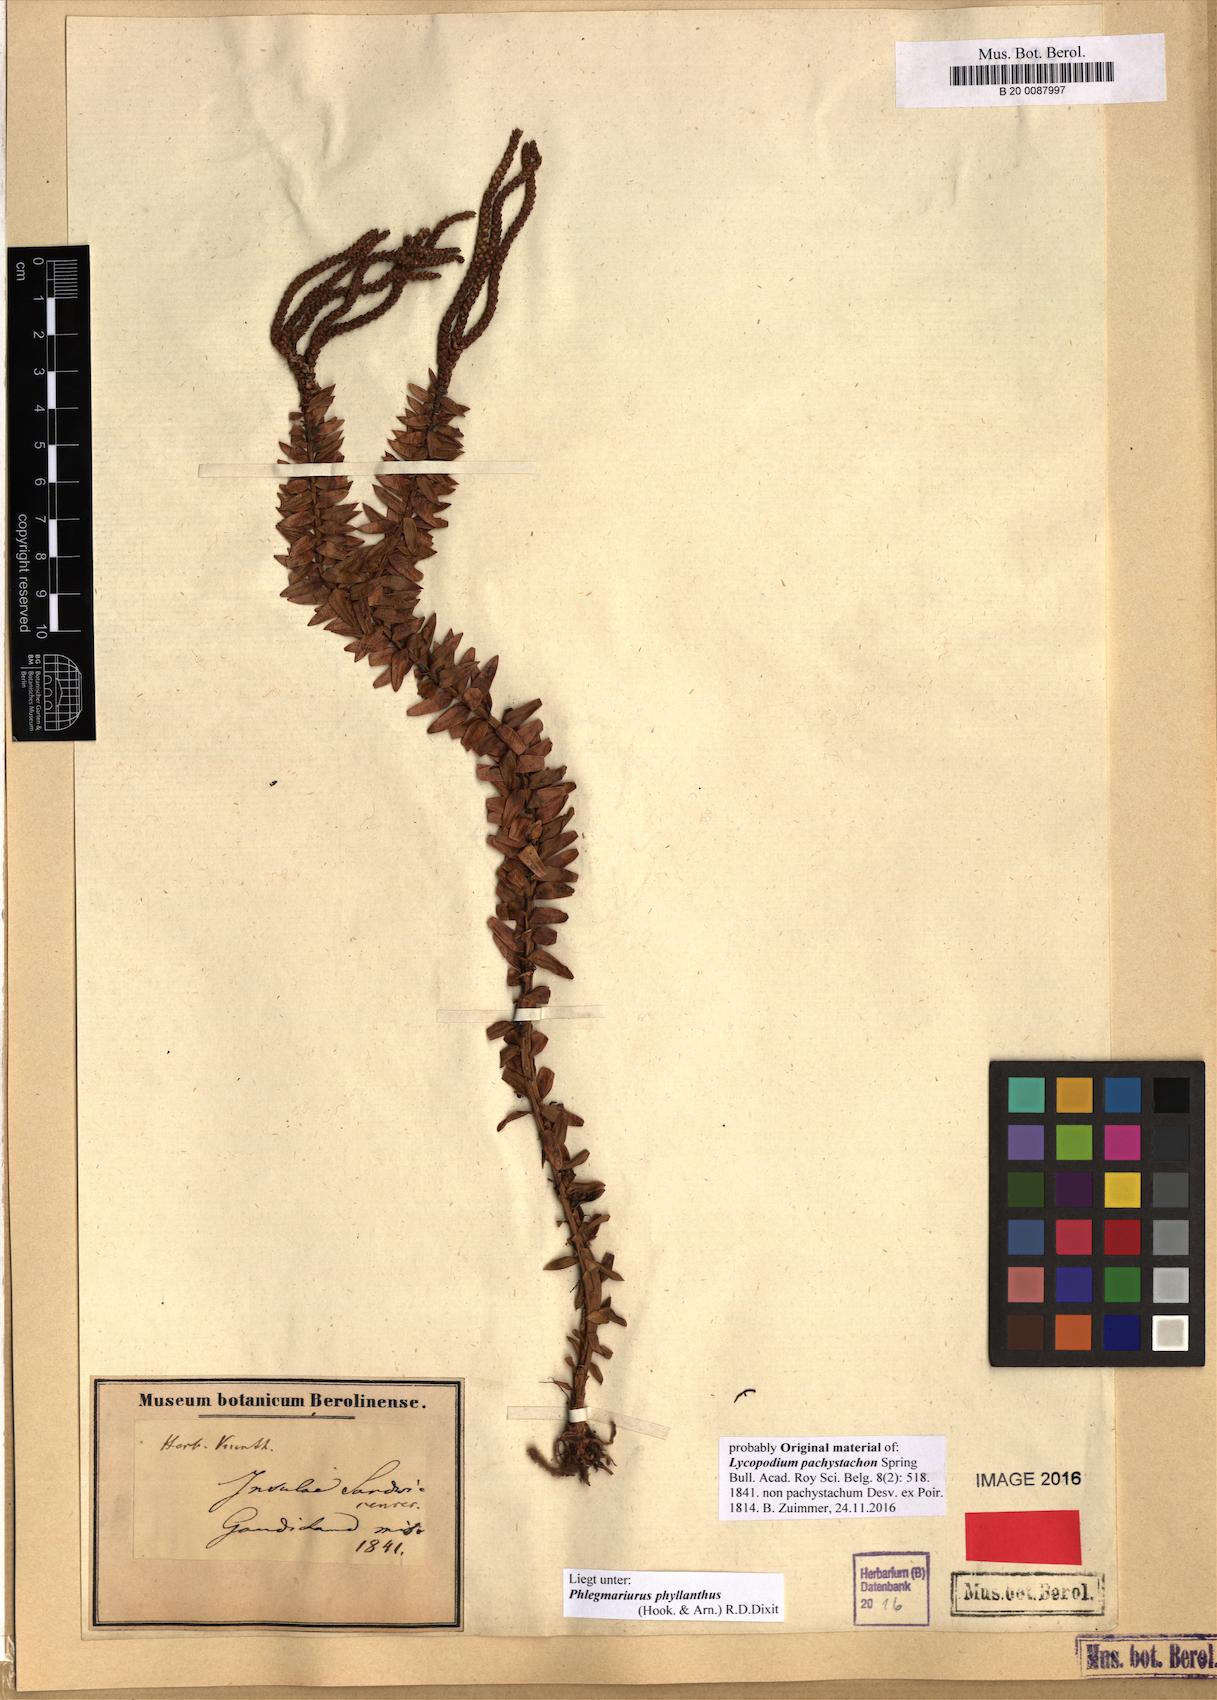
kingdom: Plantae
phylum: Tracheophyta
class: Lycopodiopsida
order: Lycopodiales
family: Lycopodiaceae
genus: Phlegmariurus
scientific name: Phlegmariurus phyllanthus
